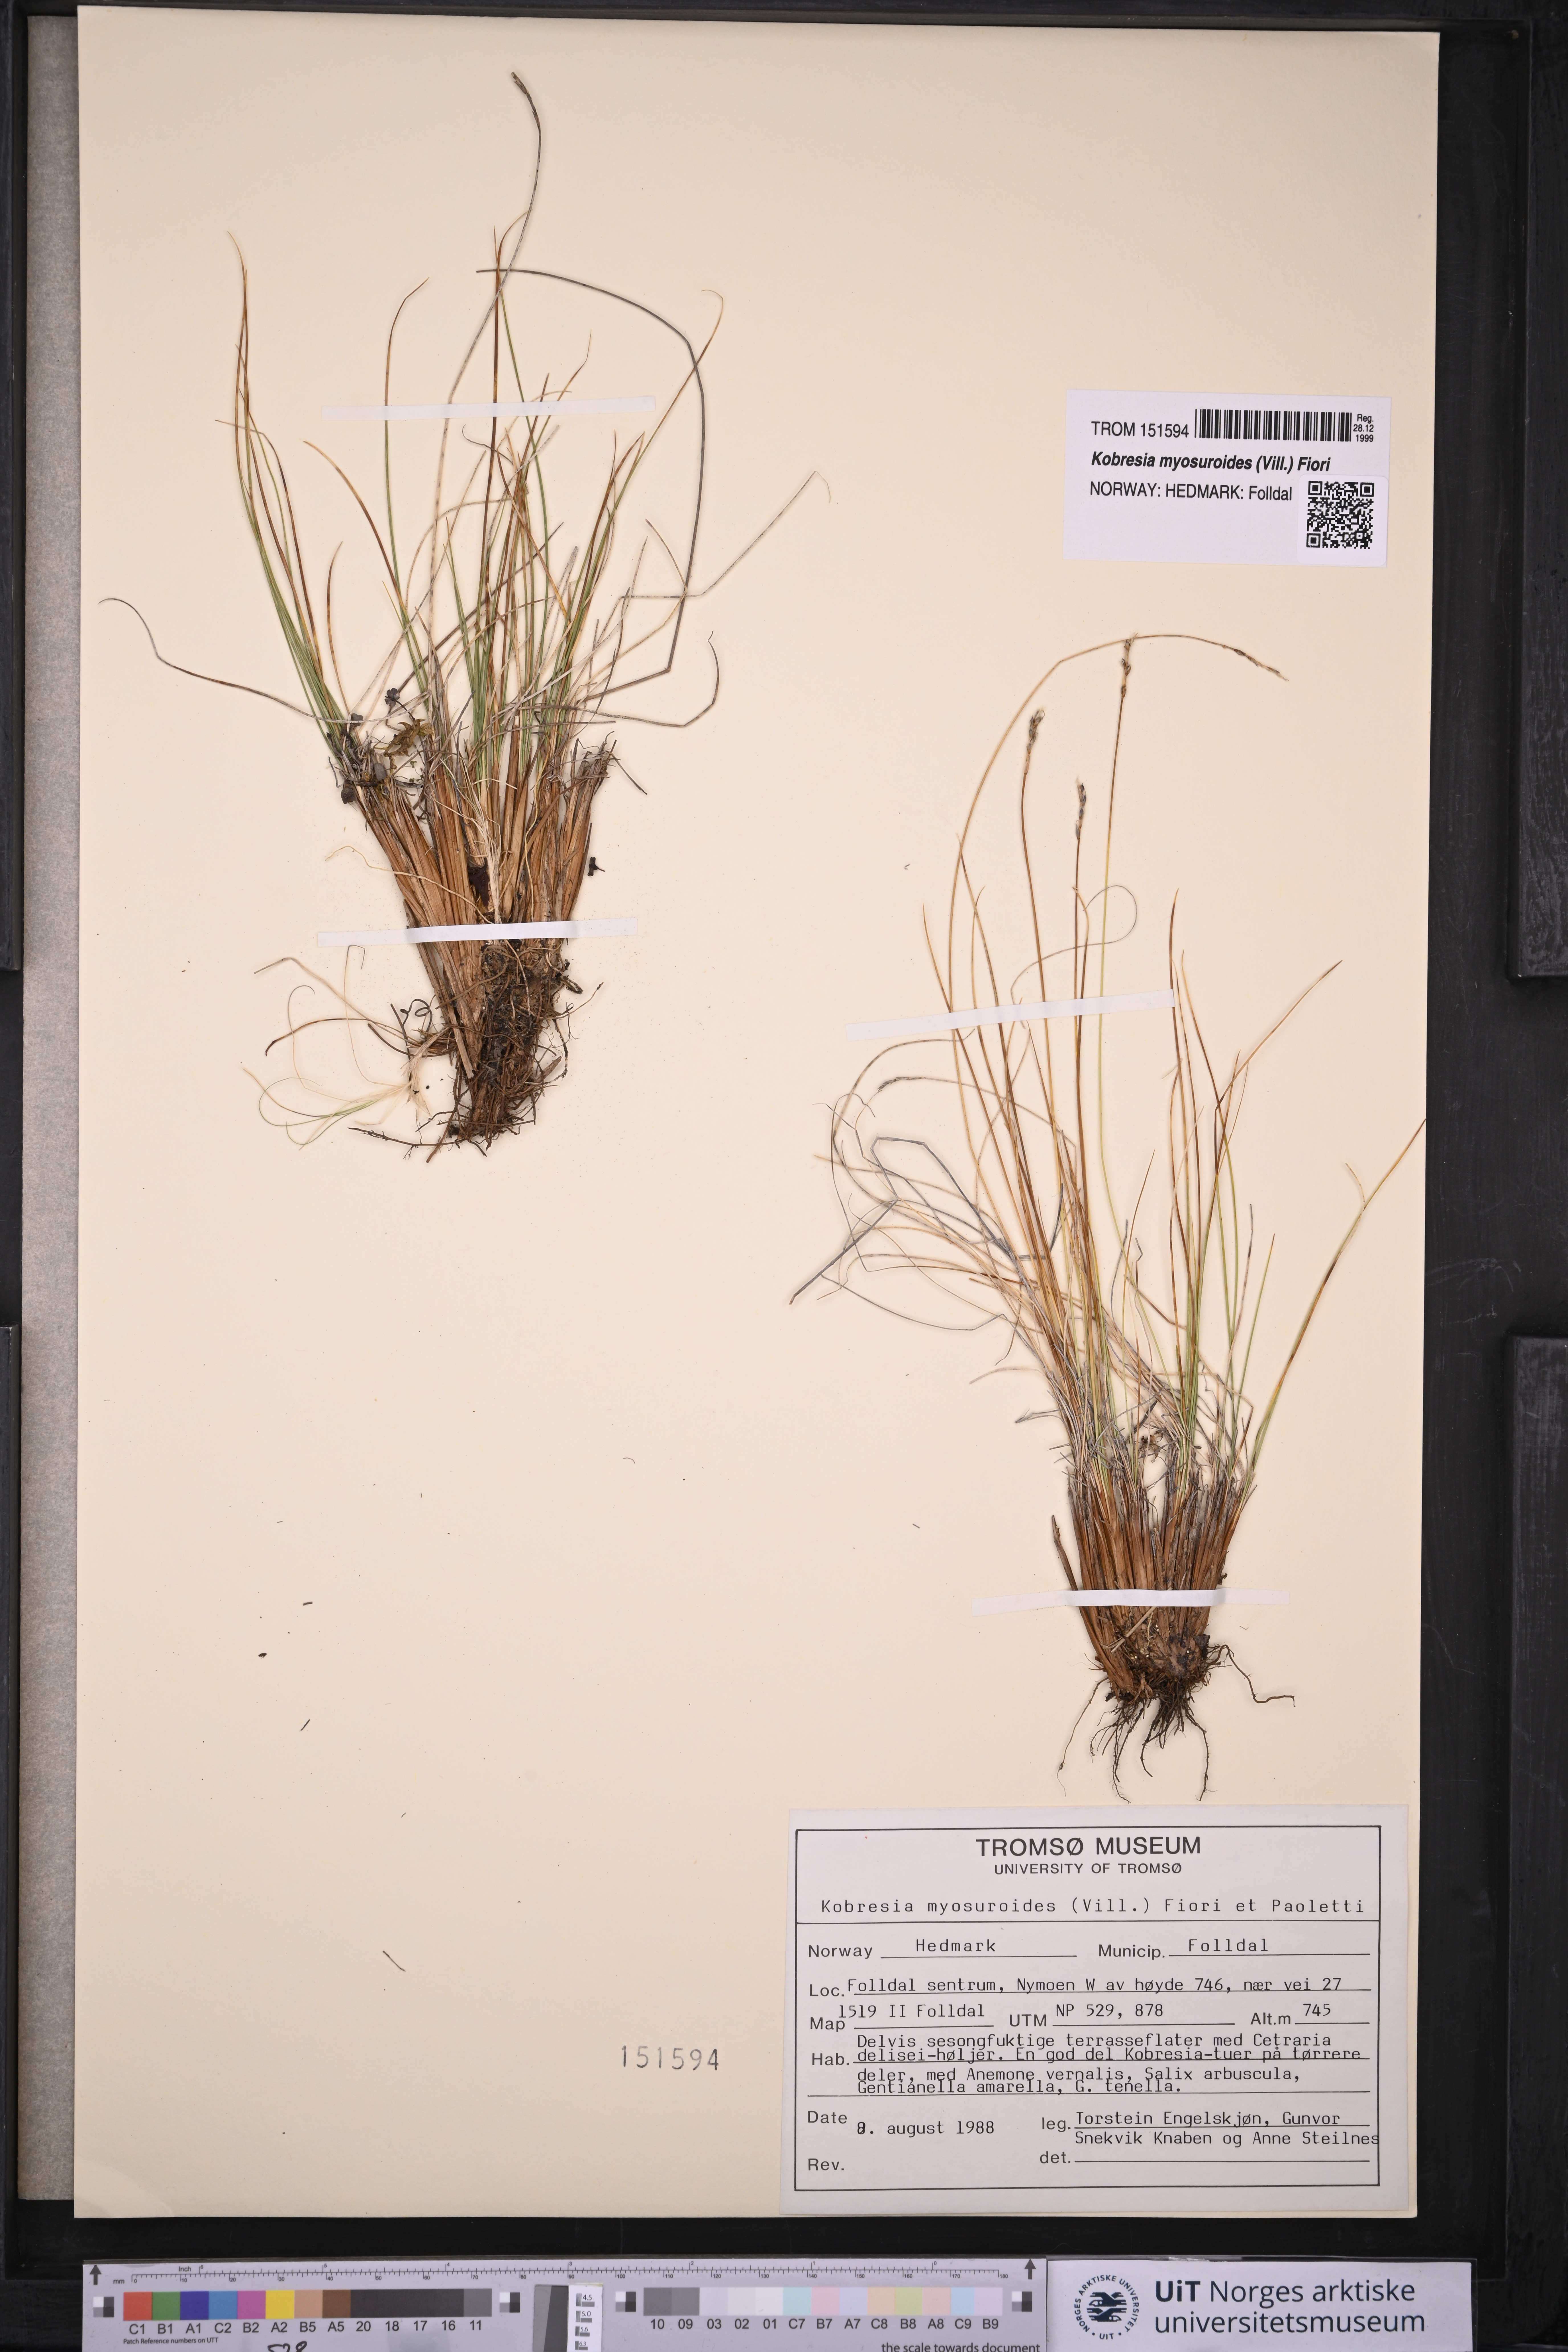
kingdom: Plantae
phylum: Tracheophyta
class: Liliopsida
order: Poales
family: Cyperaceae
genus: Carex
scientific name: Carex myosuroides
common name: Bellard's bog sedge
